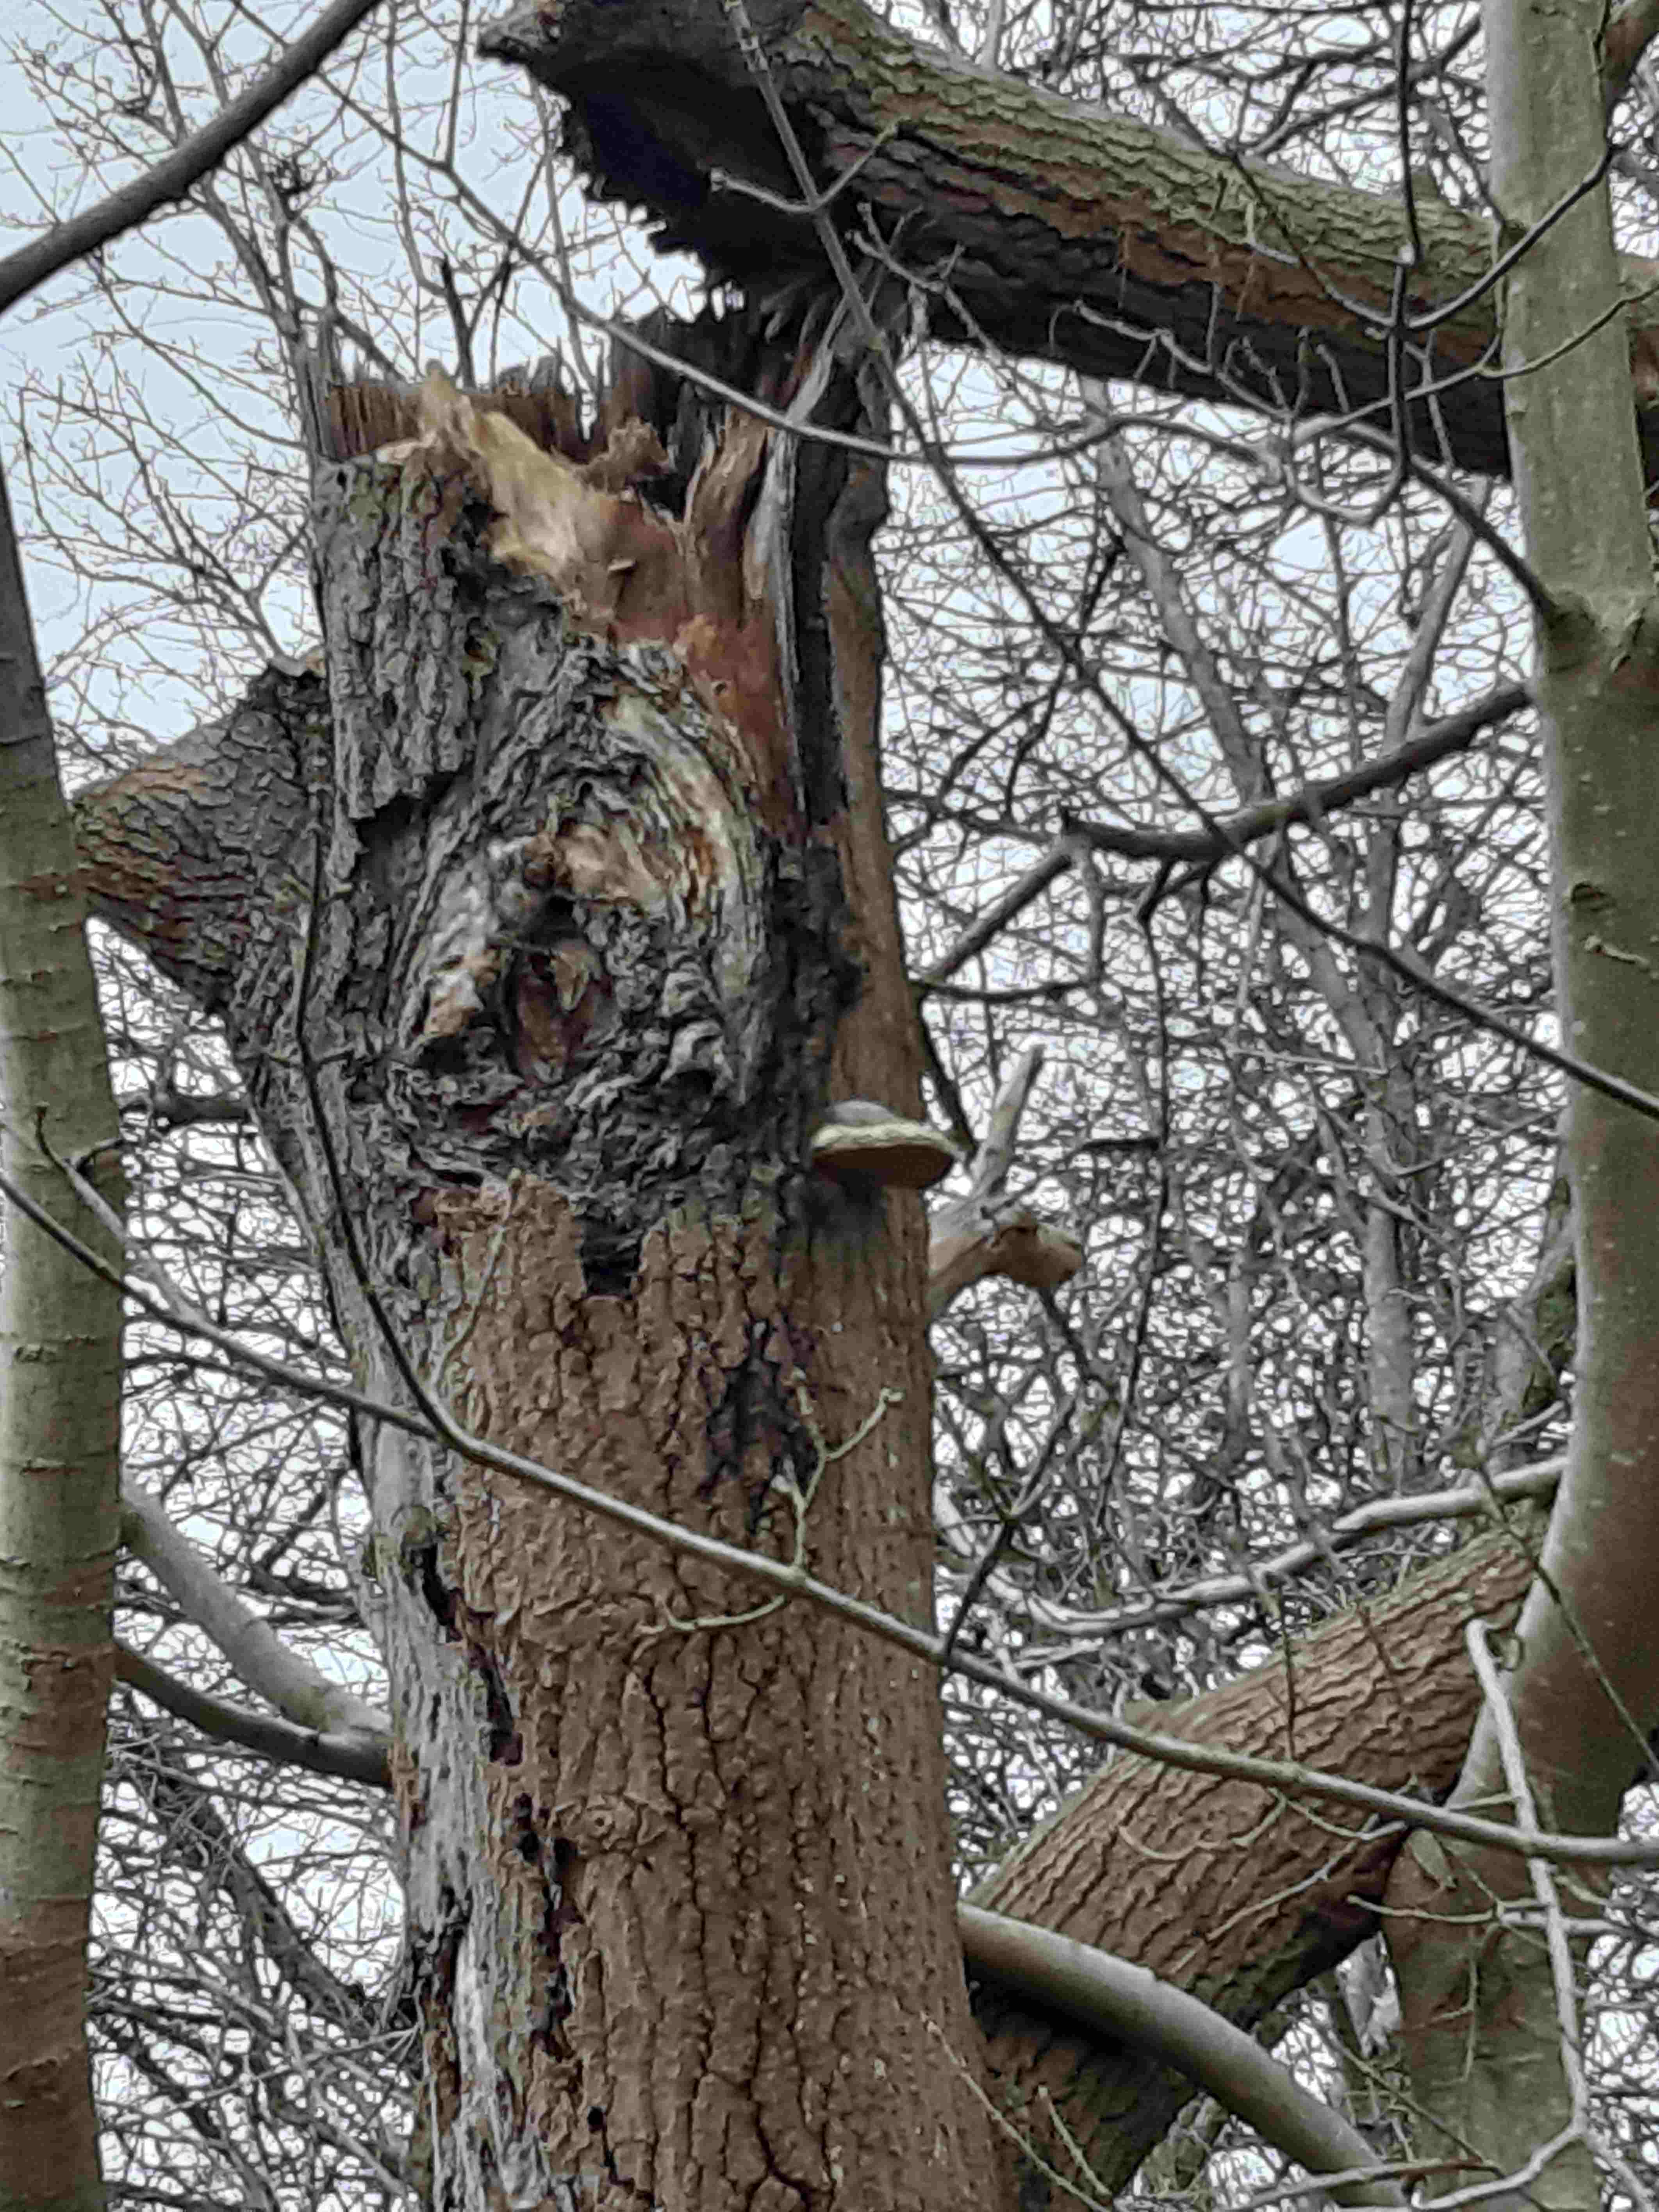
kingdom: Fungi
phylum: Basidiomycota
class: Agaricomycetes
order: Hymenochaetales
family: Hymenochaetaceae
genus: Phellinus
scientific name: Phellinus populicola
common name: poppel-ildporesvamp
